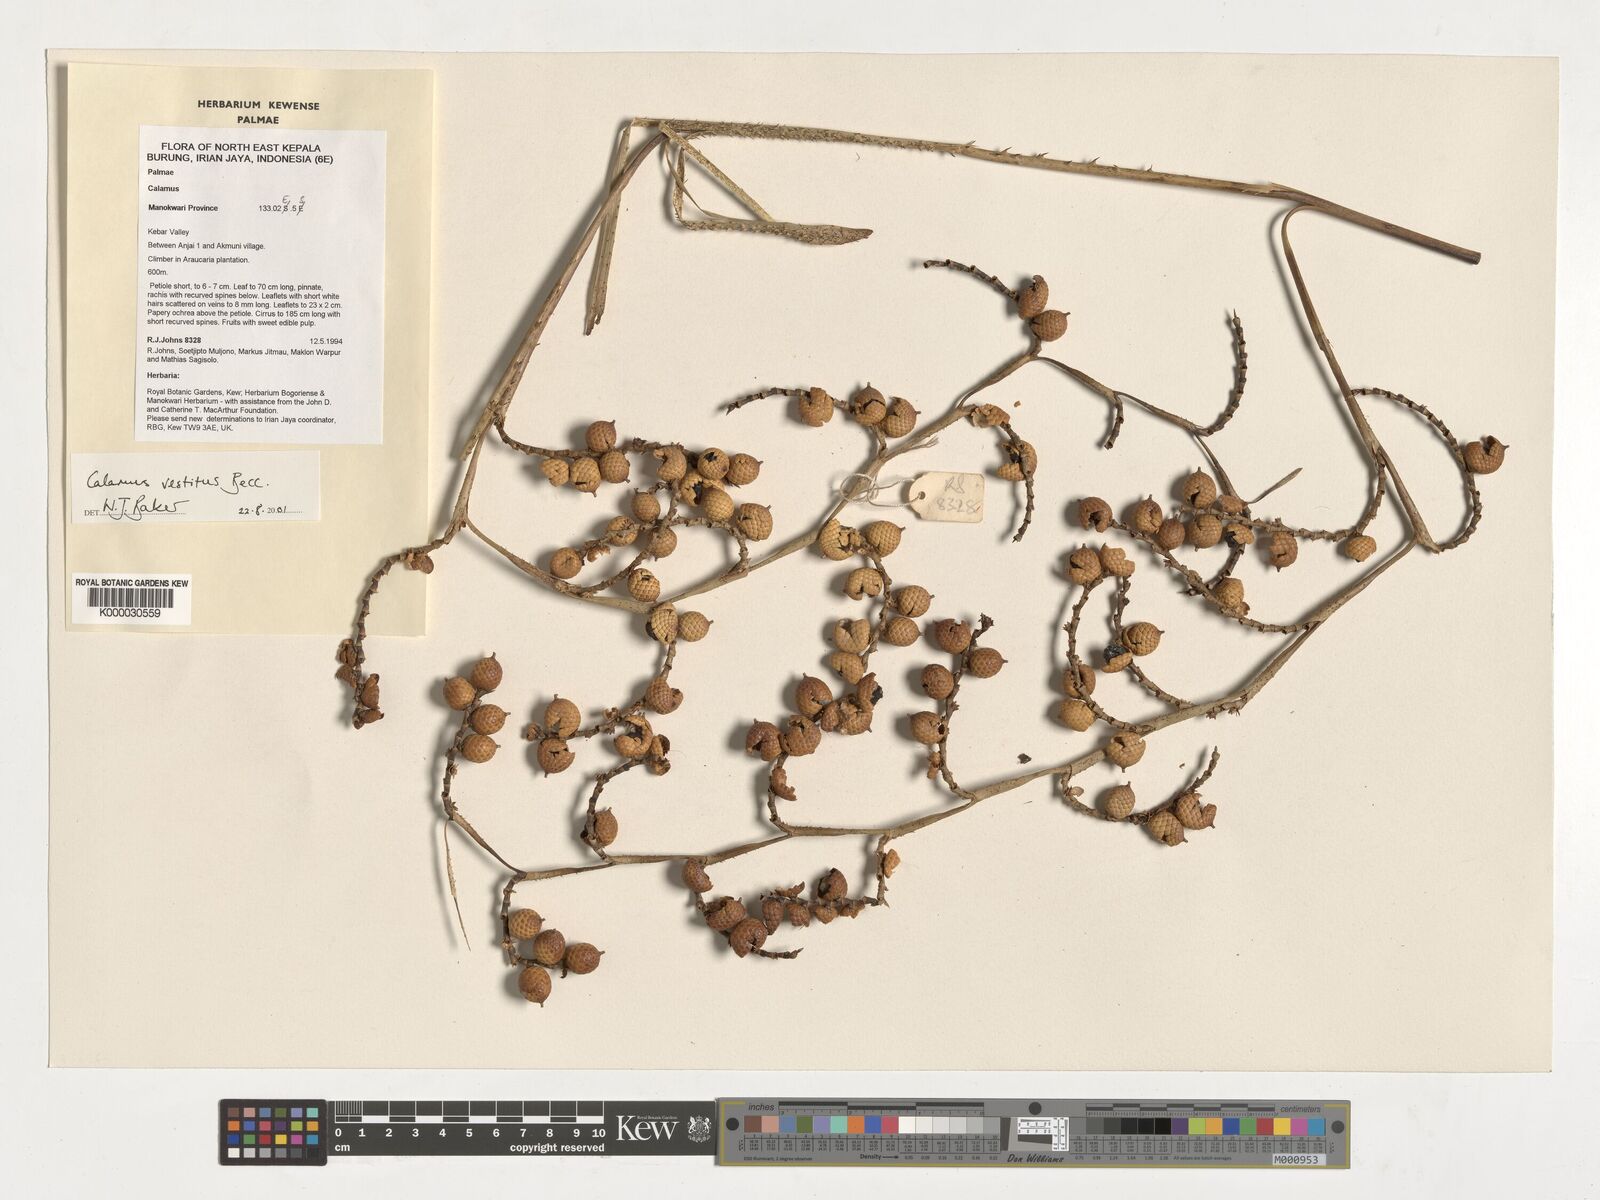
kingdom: Plantae
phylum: Tracheophyta
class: Liliopsida
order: Arecales
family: Arecaceae
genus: Calamus
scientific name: Calamus vestitus
